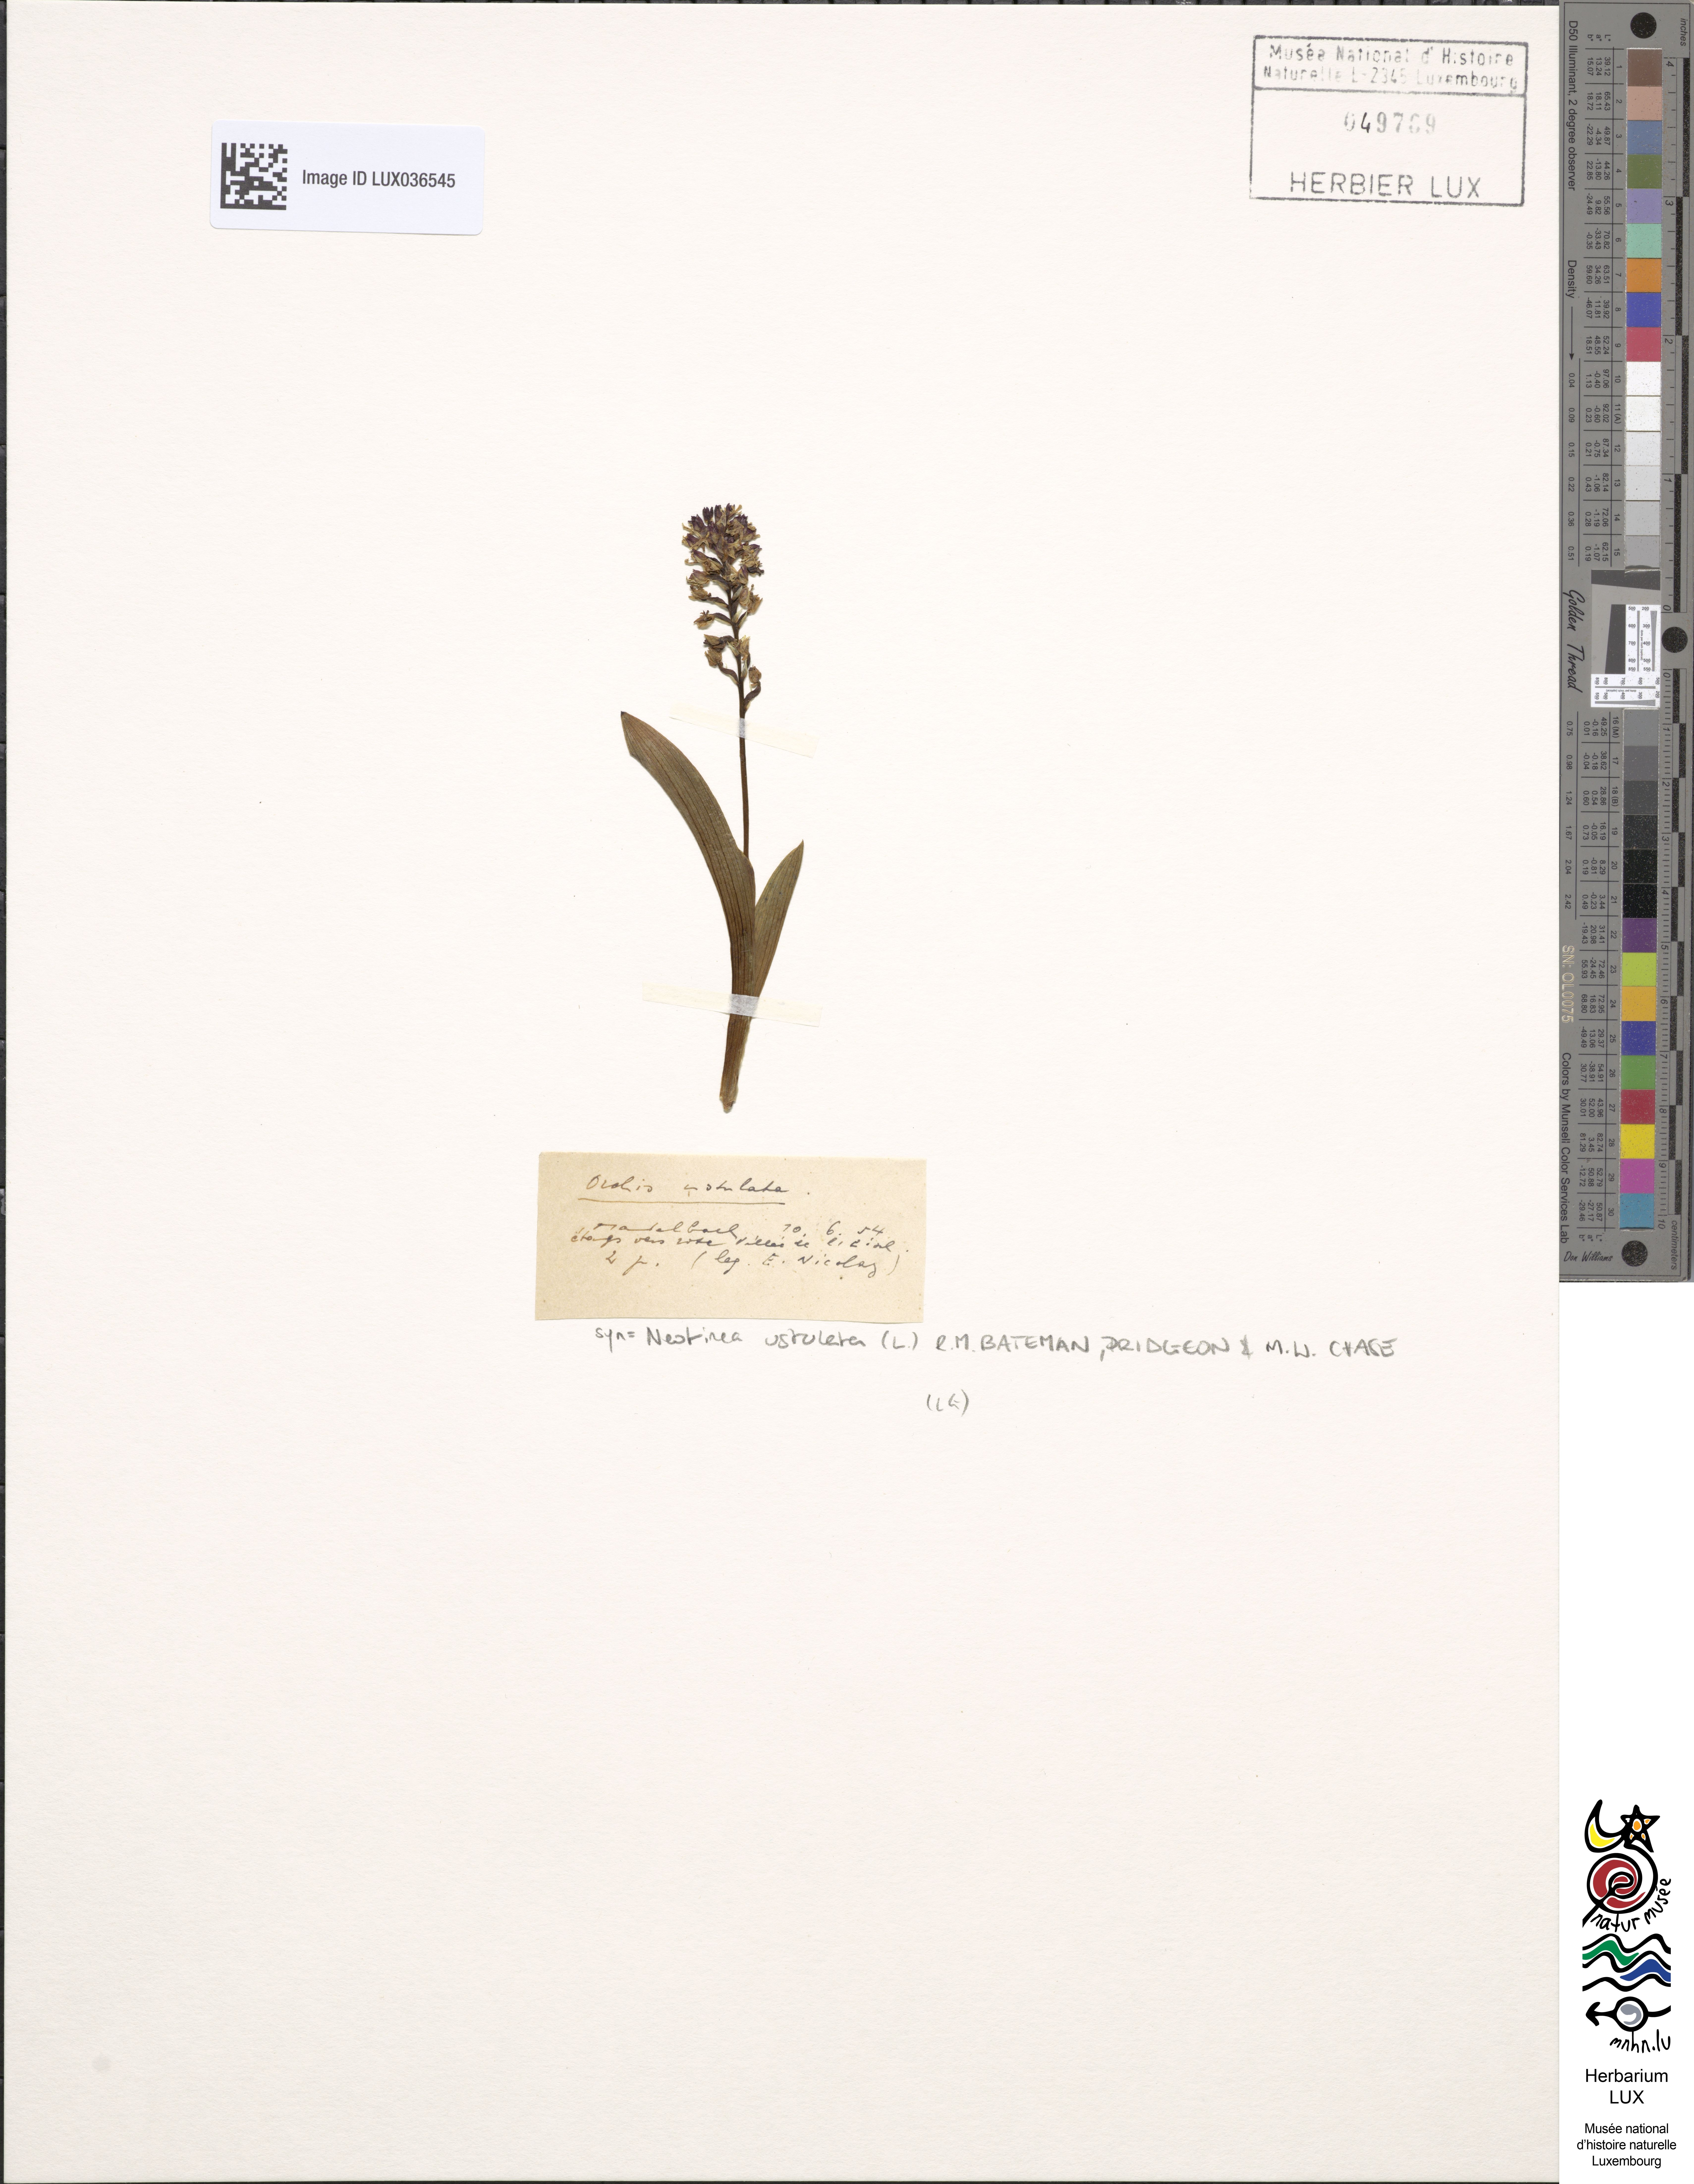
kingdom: Plantae
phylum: Tracheophyta
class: Liliopsida
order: Asparagales
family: Orchidaceae
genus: Neotinea
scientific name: Neotinea ustulata
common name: Burnt orchid
